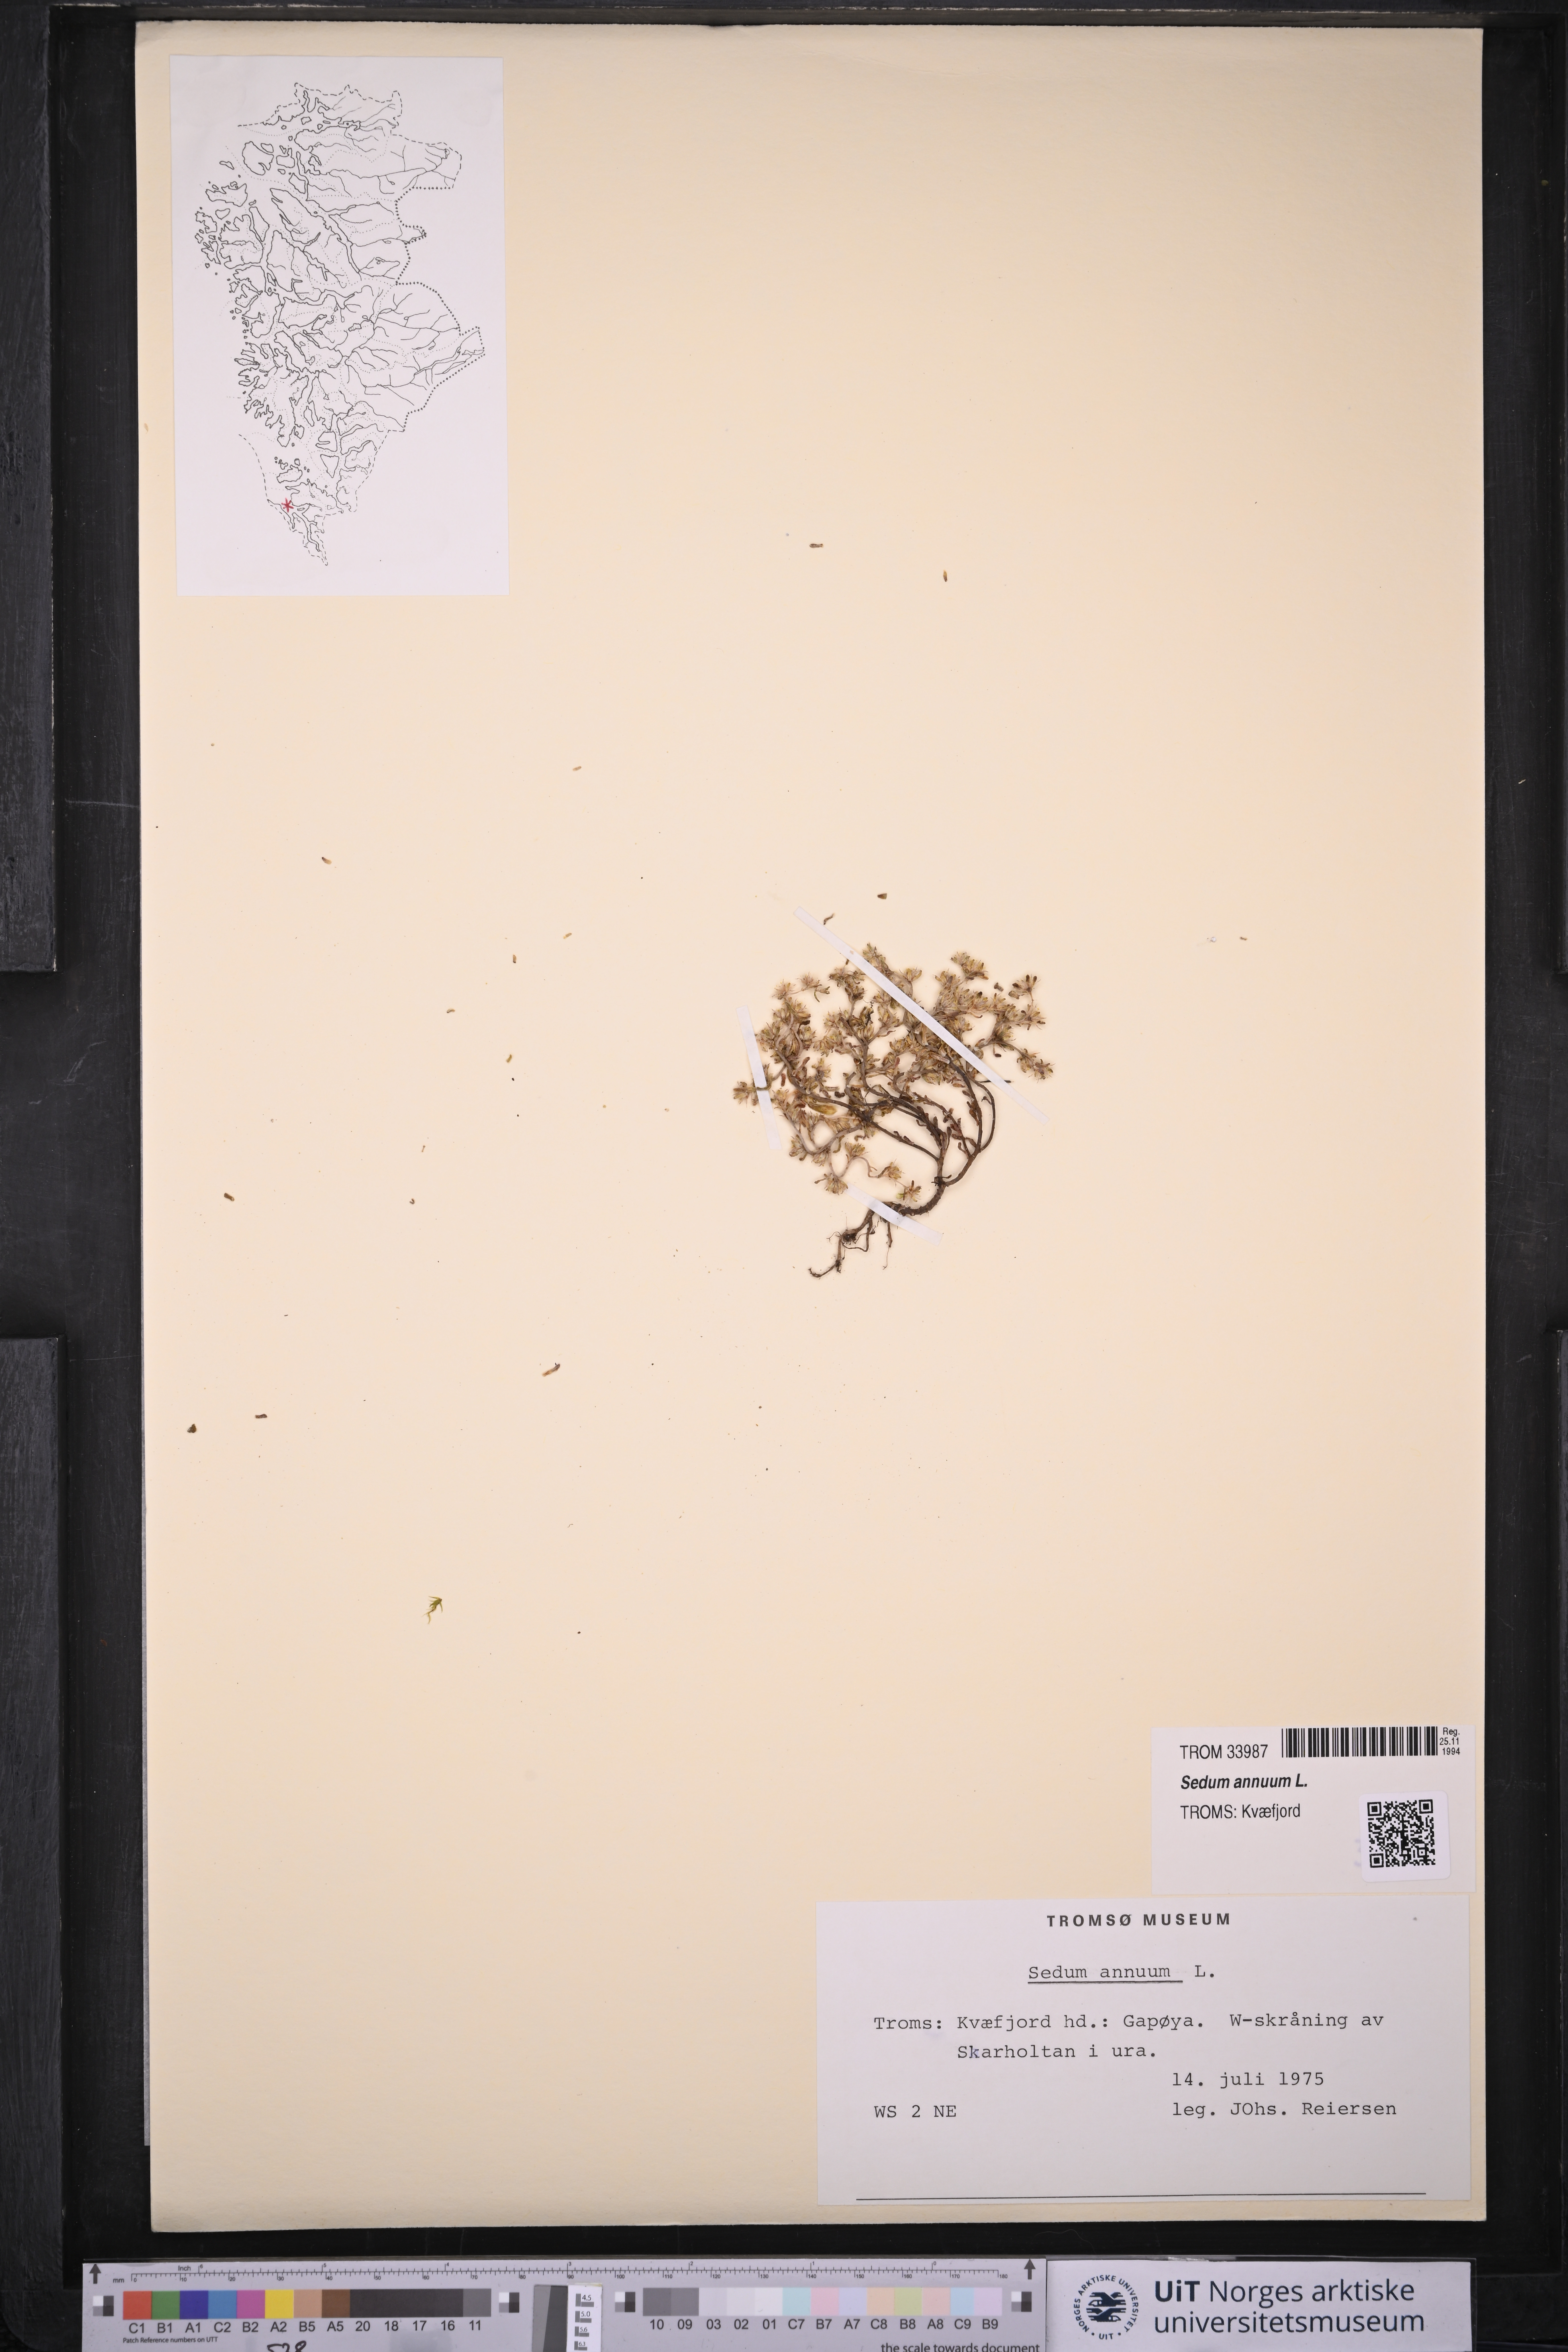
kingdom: Plantae
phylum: Tracheophyta
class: Magnoliopsida
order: Saxifragales
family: Crassulaceae
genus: Sedum
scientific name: Sedum annuum
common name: Annual stonecrop
